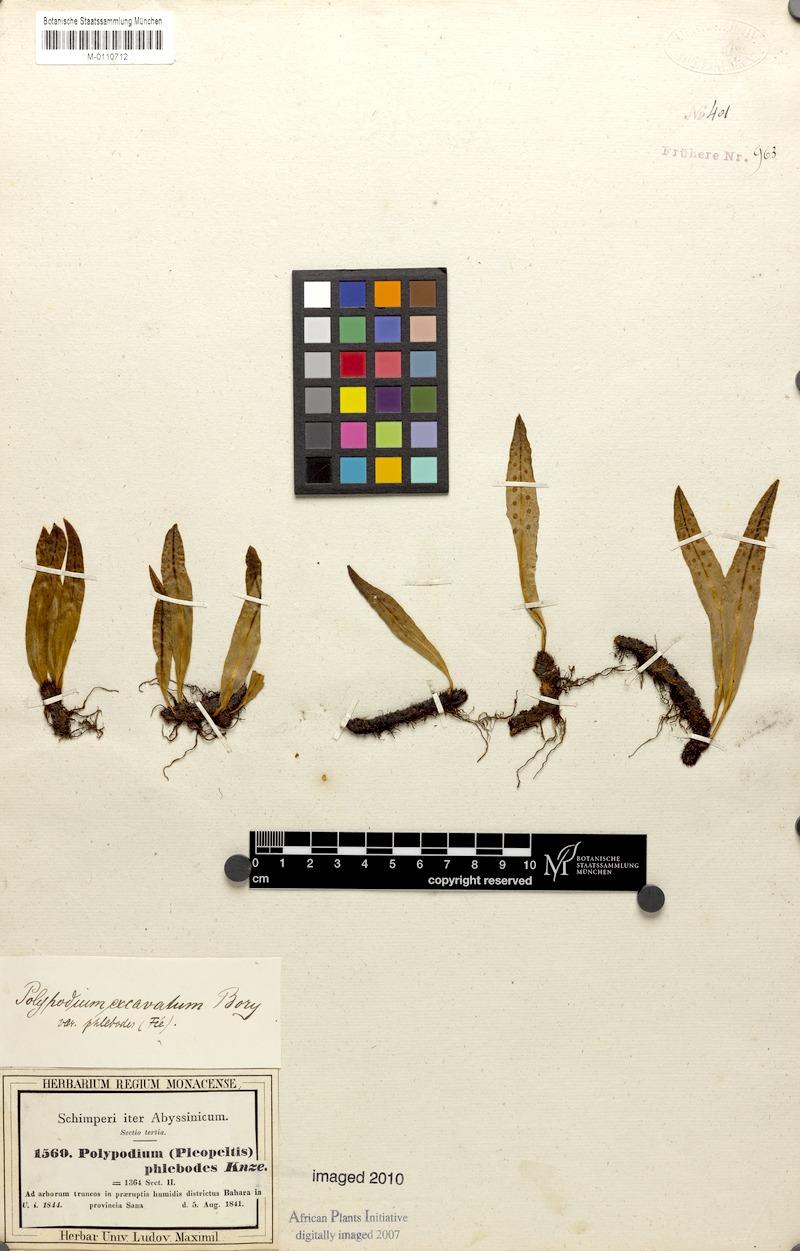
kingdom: Plantae
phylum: Tracheophyta
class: Polypodiopsida
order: Polypodiales
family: Polypodiaceae
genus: Lepisorus
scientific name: Lepisorus excavatus
